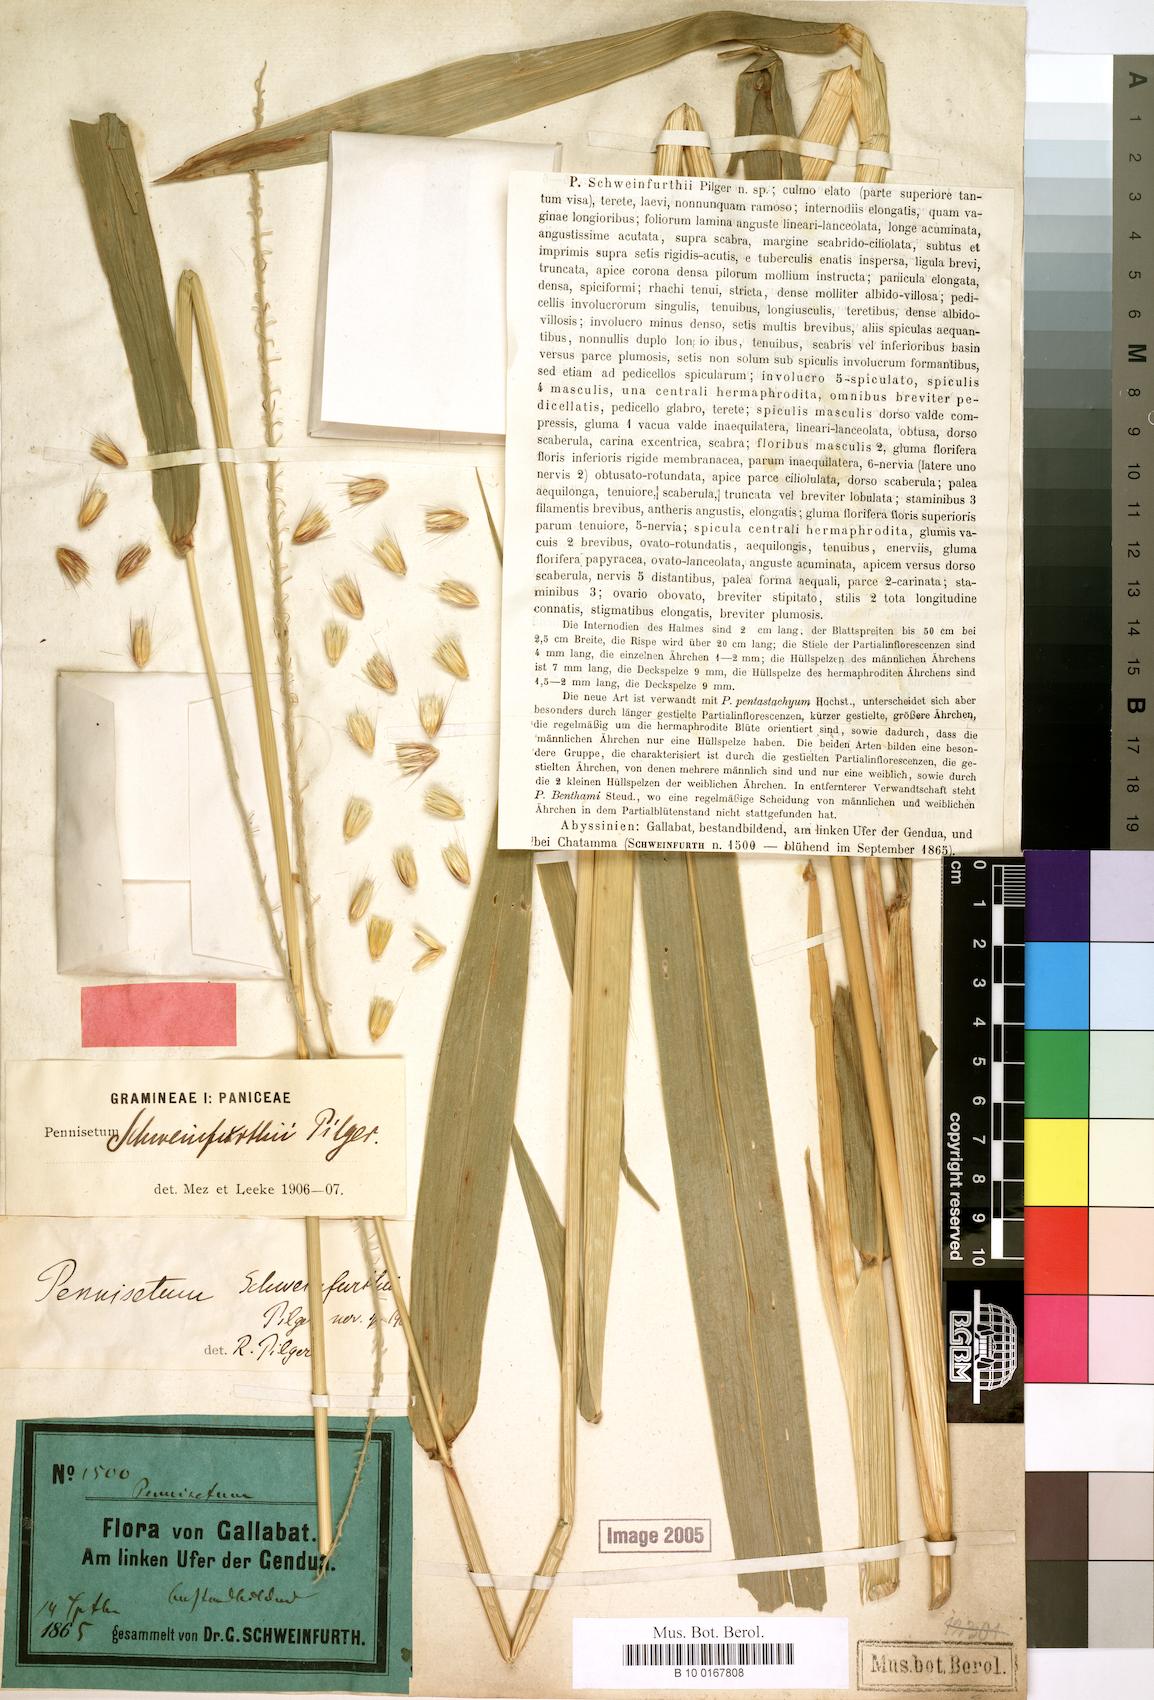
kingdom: Plantae
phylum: Tracheophyta
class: Liliopsida
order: Poales
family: Poaceae
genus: Cenchrus
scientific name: Cenchrus schweinfurthii
